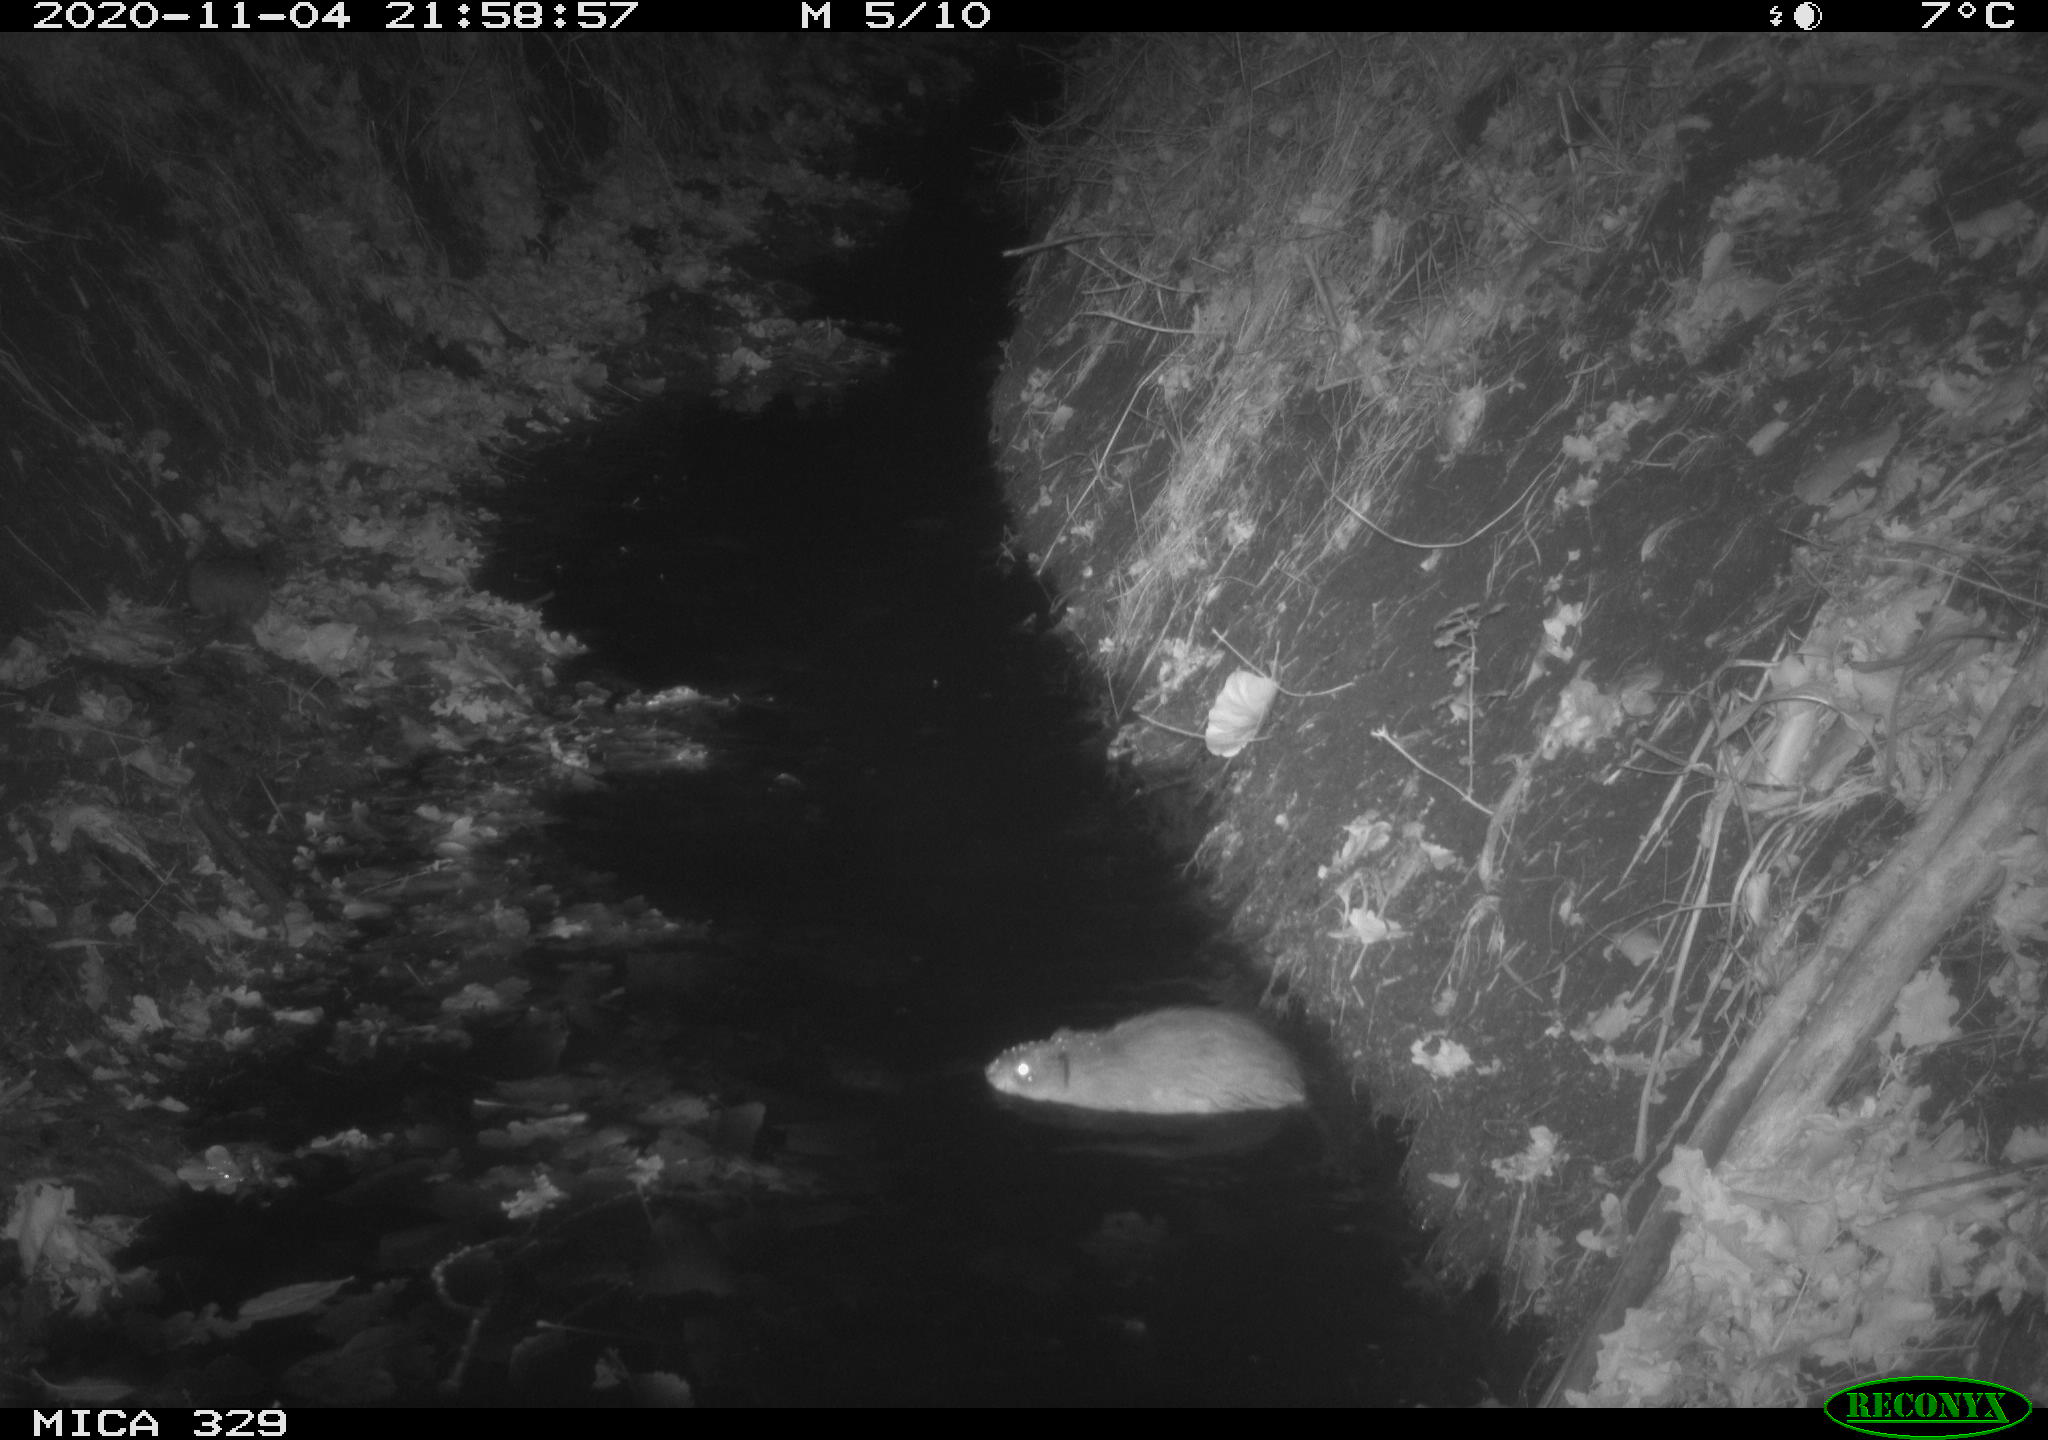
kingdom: Animalia
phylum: Chordata
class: Mammalia
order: Rodentia
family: Cricetidae
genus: Ondatra
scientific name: Ondatra zibethicus
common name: Muskrat
